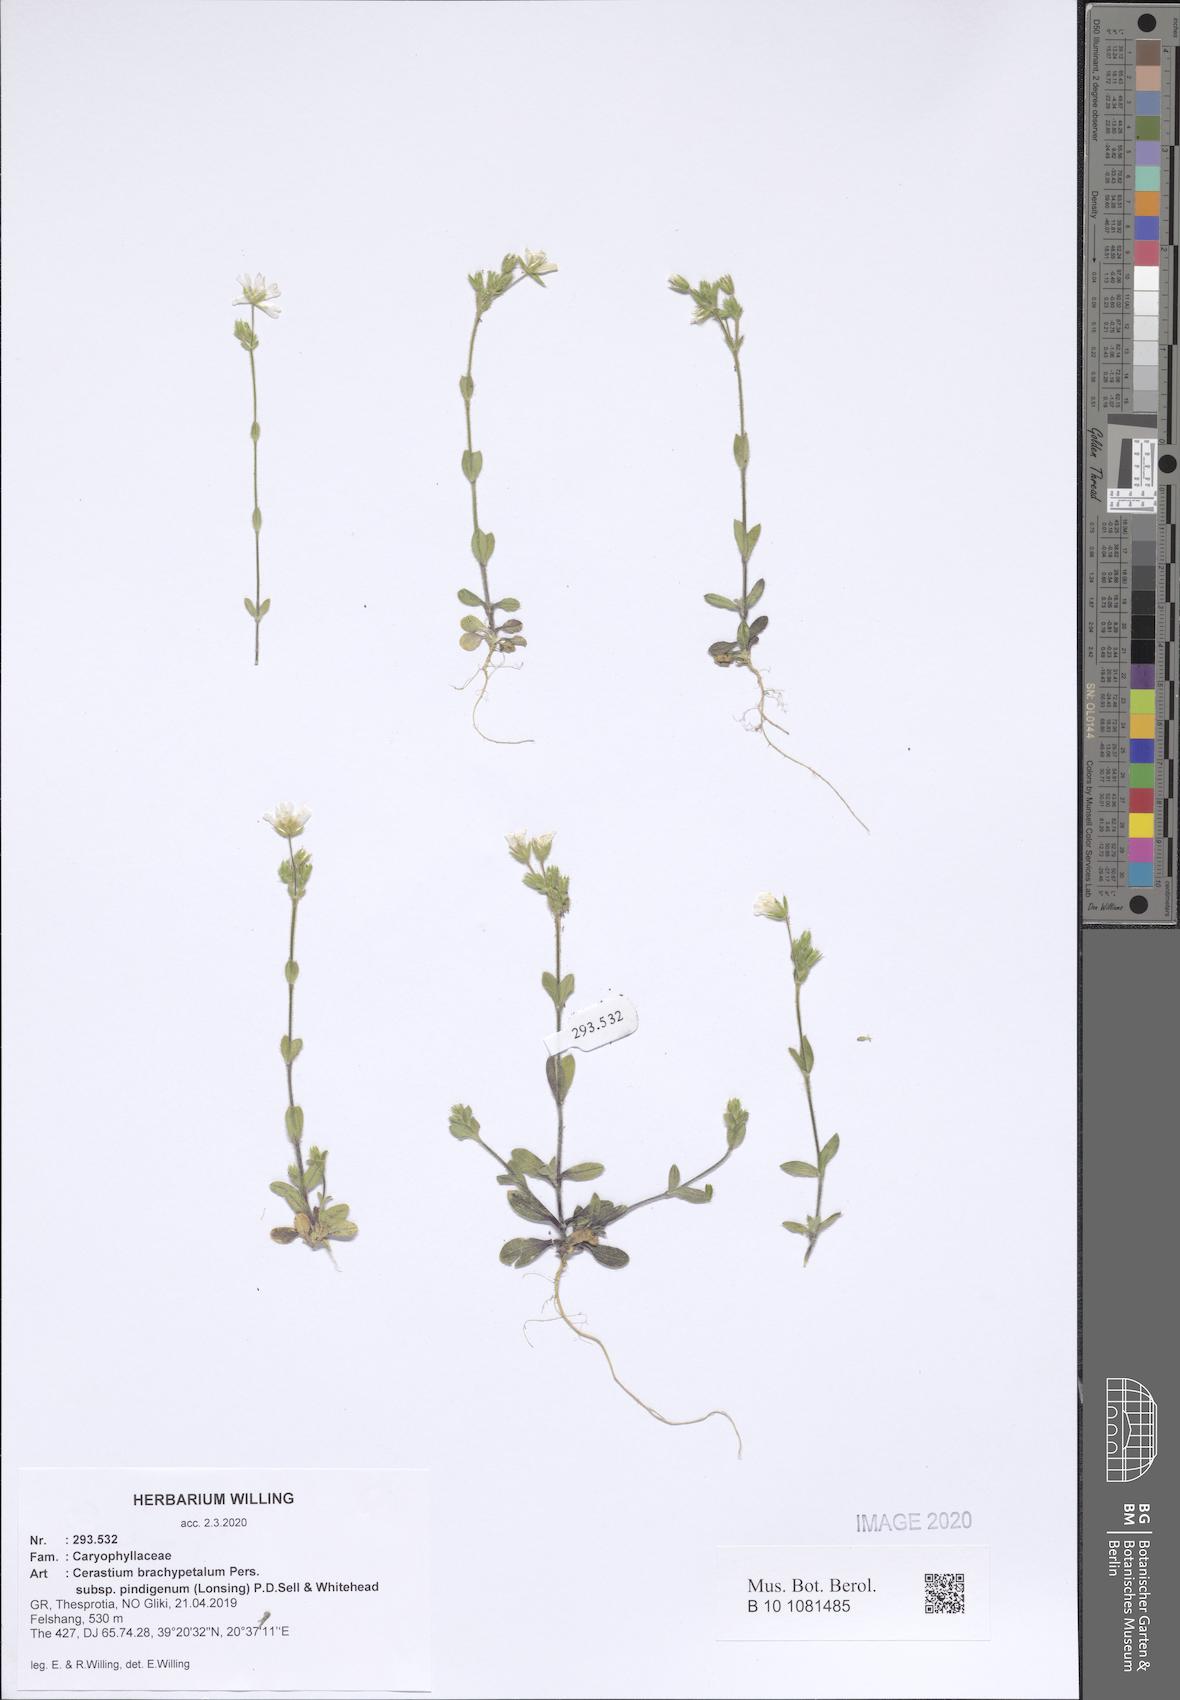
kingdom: Plantae
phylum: Tracheophyta
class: Magnoliopsida
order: Caryophyllales
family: Caryophyllaceae
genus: Cerastium
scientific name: Cerastium brachypetalum
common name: Grey mouse-ear
